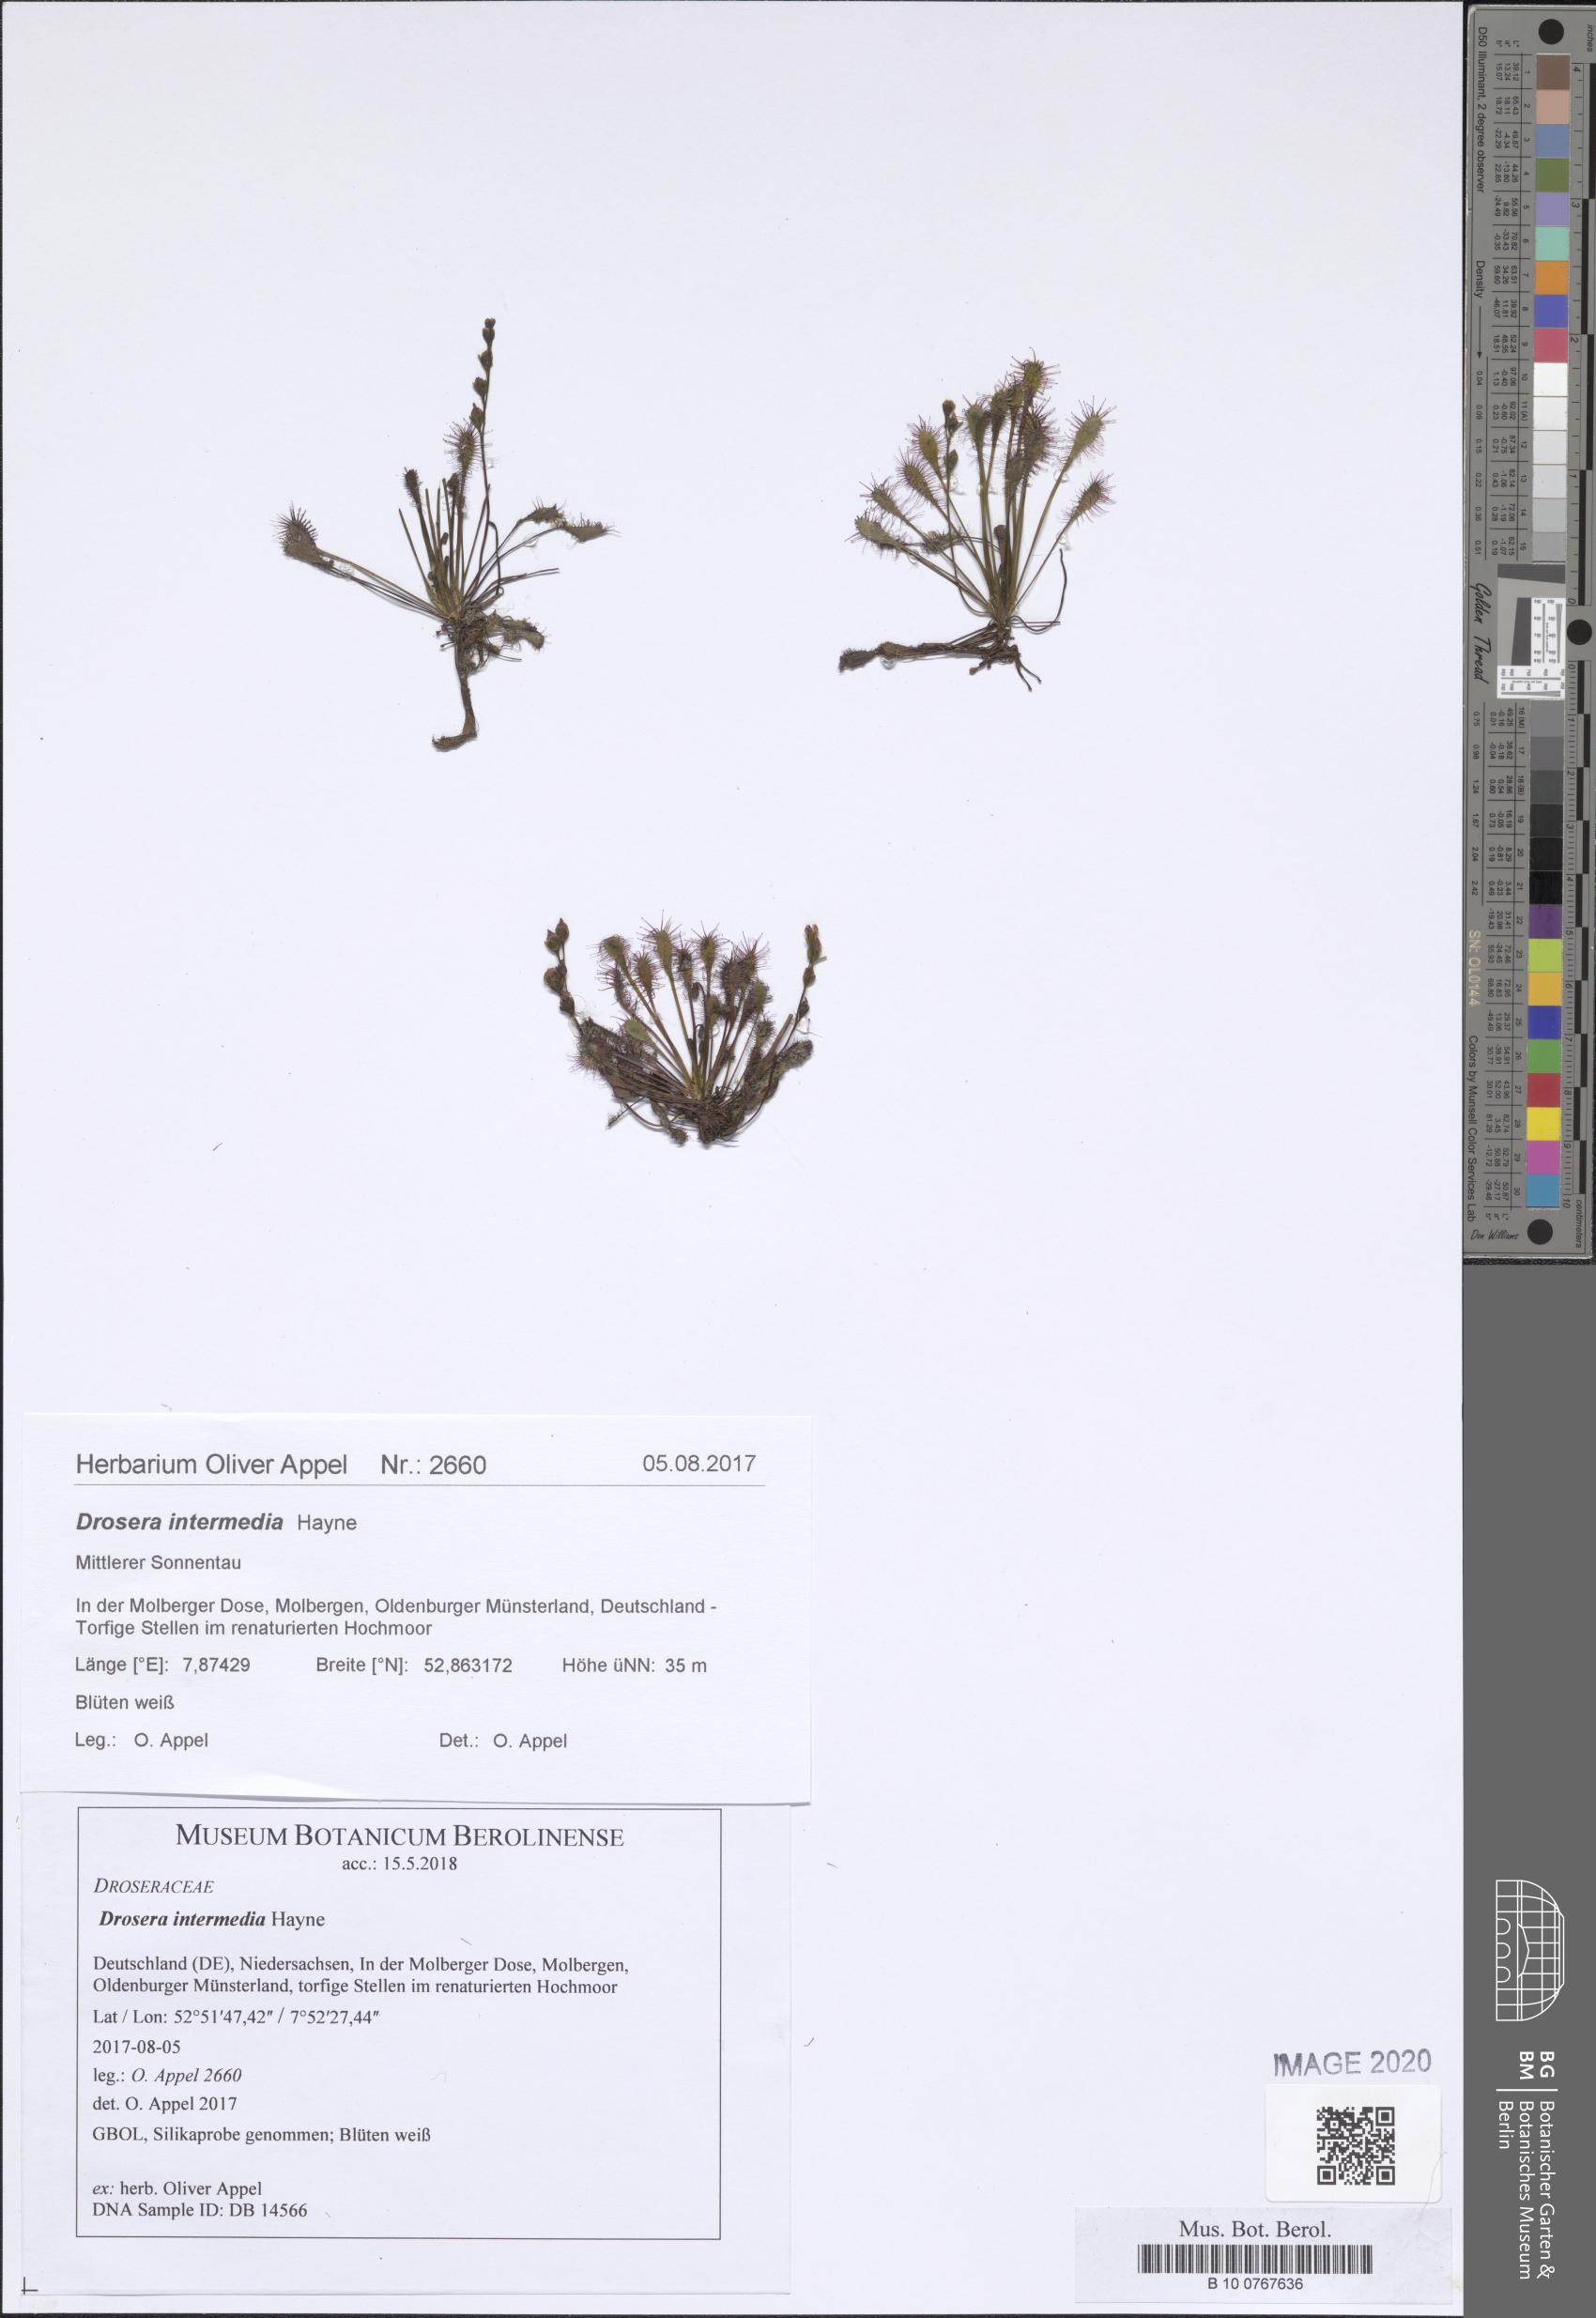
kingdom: Plantae
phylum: Tracheophyta
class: Magnoliopsida
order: Caryophyllales
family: Droseraceae
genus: Drosera
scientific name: Drosera intermedia
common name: Oblong-leaved sundew
